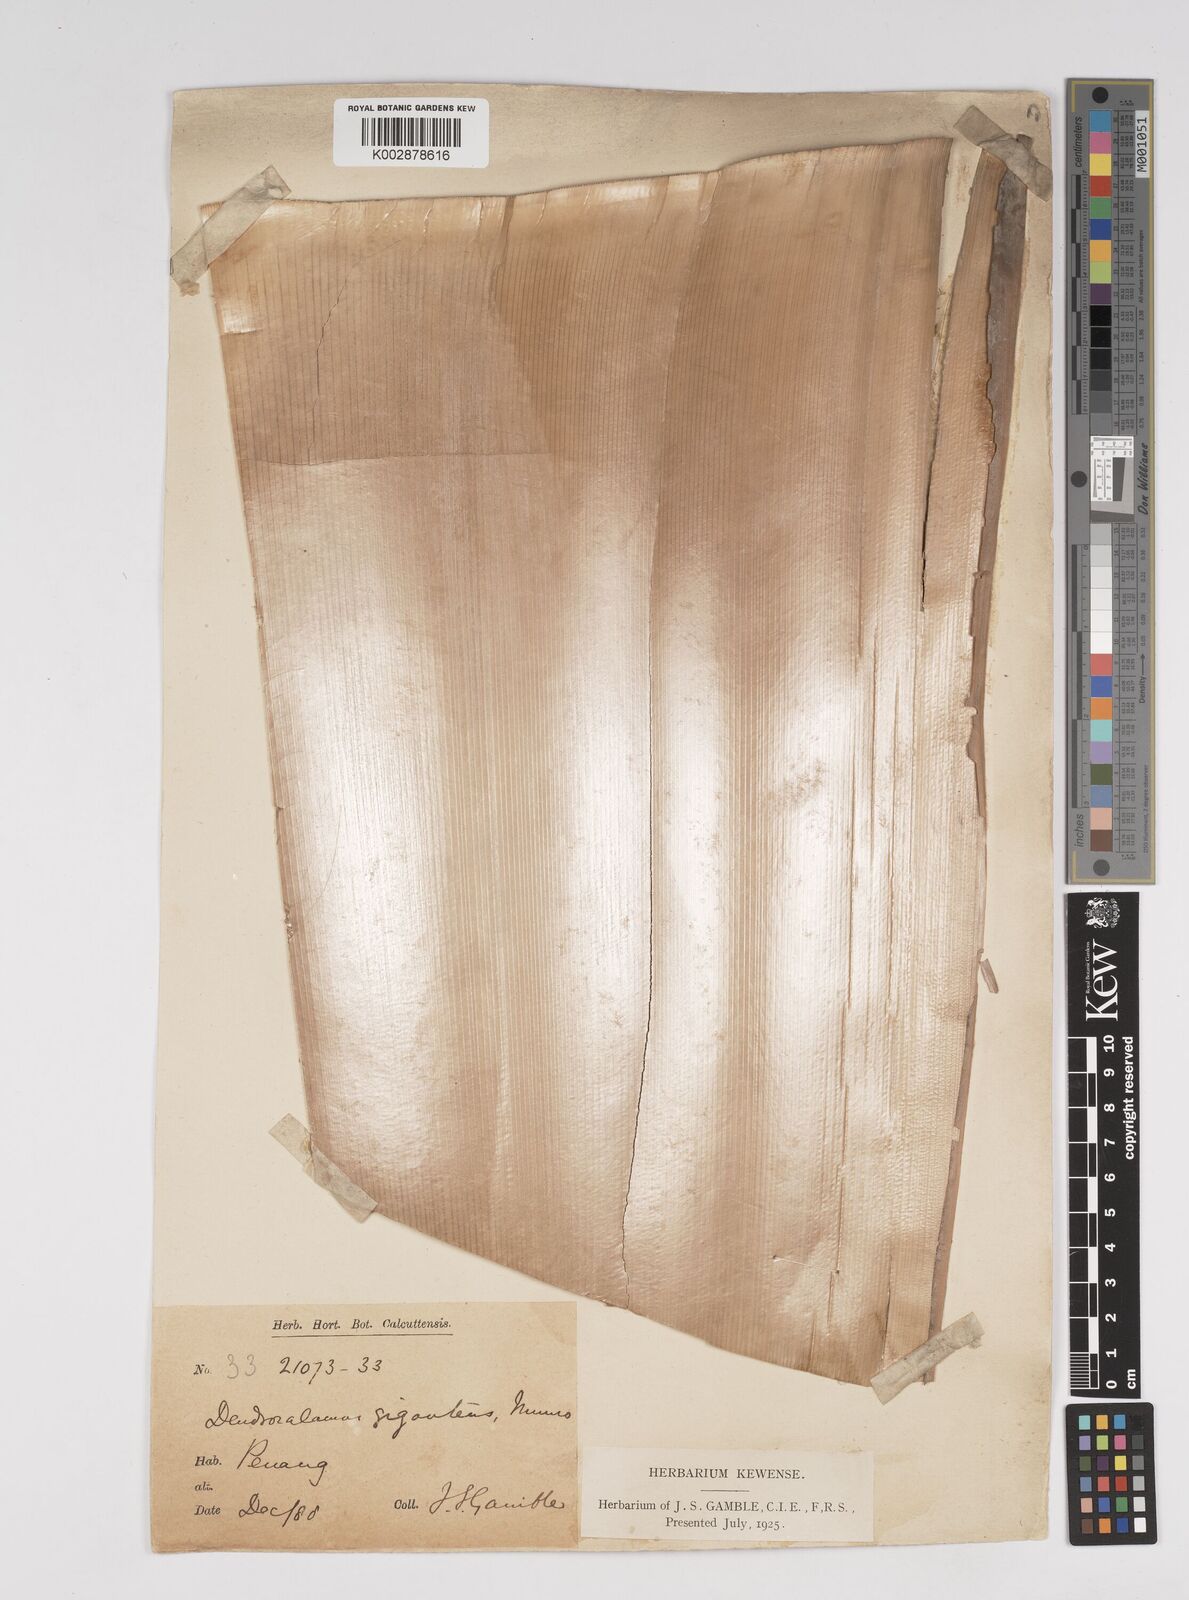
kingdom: Plantae
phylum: Tracheophyta
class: Liliopsida
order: Poales
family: Poaceae
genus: Dendrocalamus
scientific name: Dendrocalamus giganteus
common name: Giant bamboo
